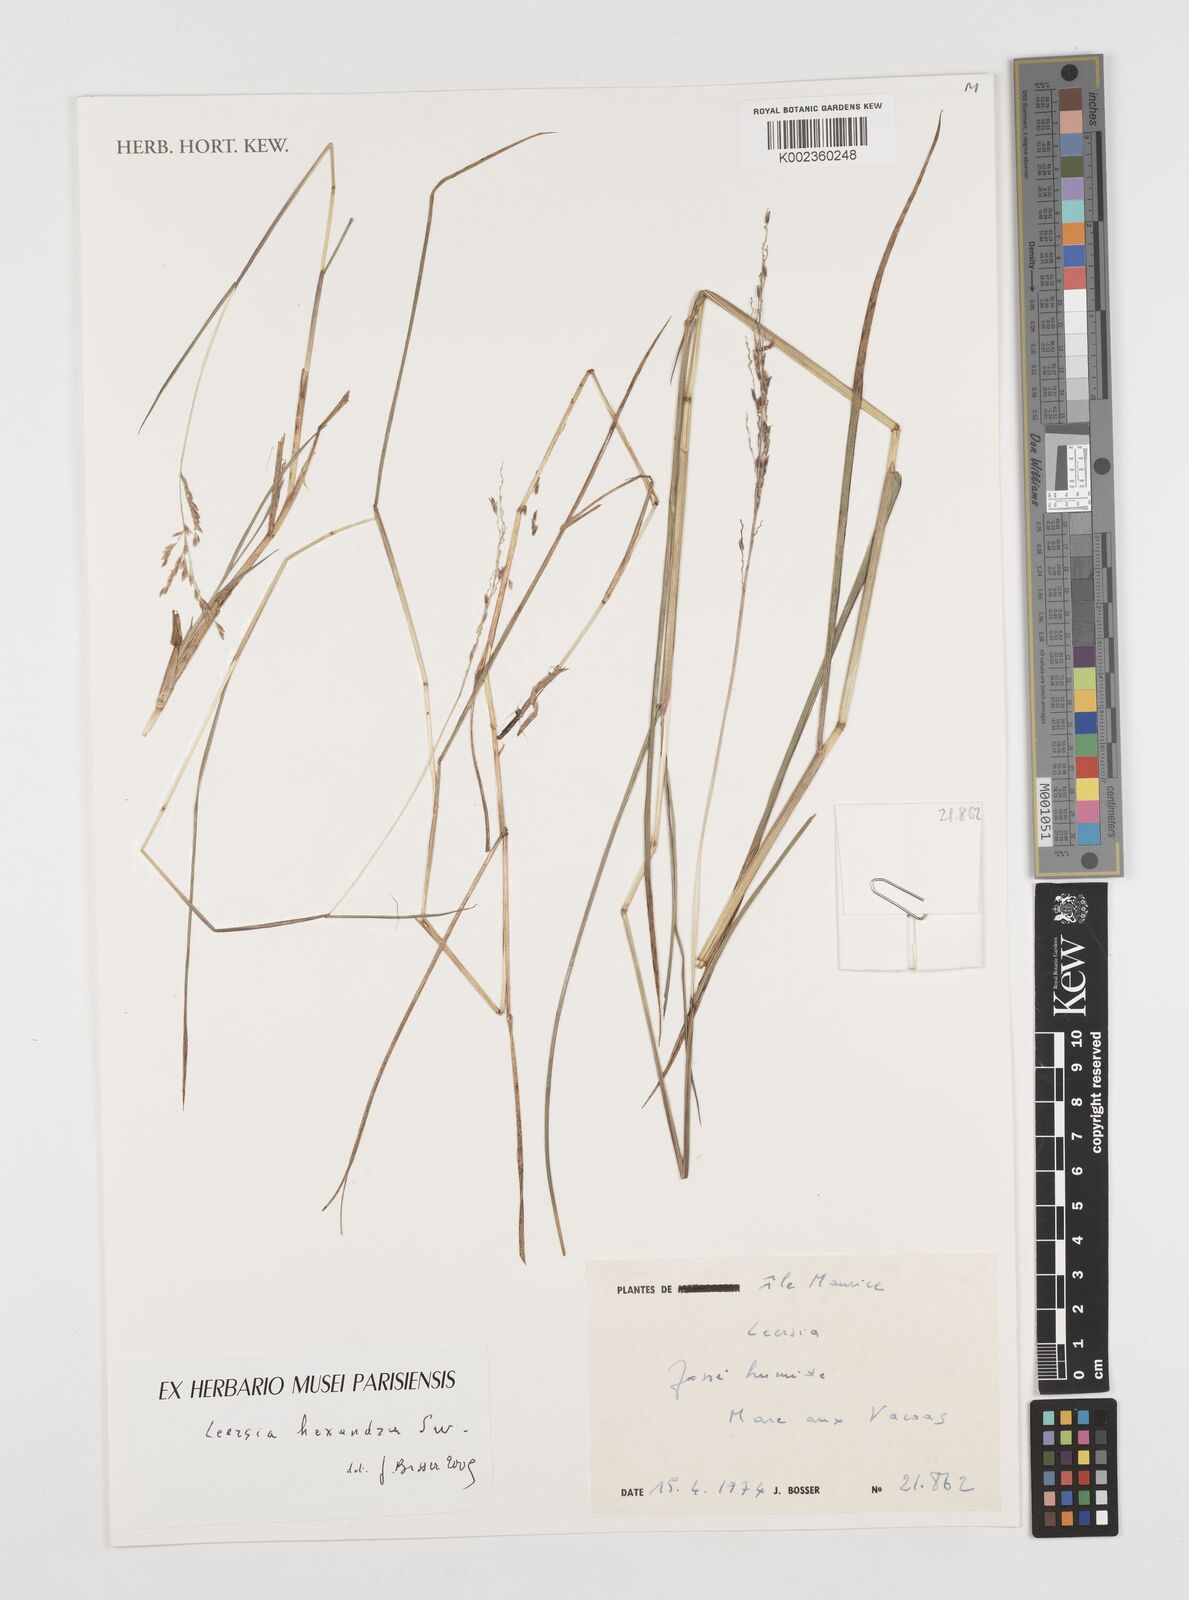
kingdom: Plantae
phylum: Tracheophyta
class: Liliopsida
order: Poales
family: Poaceae
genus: Leersia
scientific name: Leersia hexandra
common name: Southern cut grass
